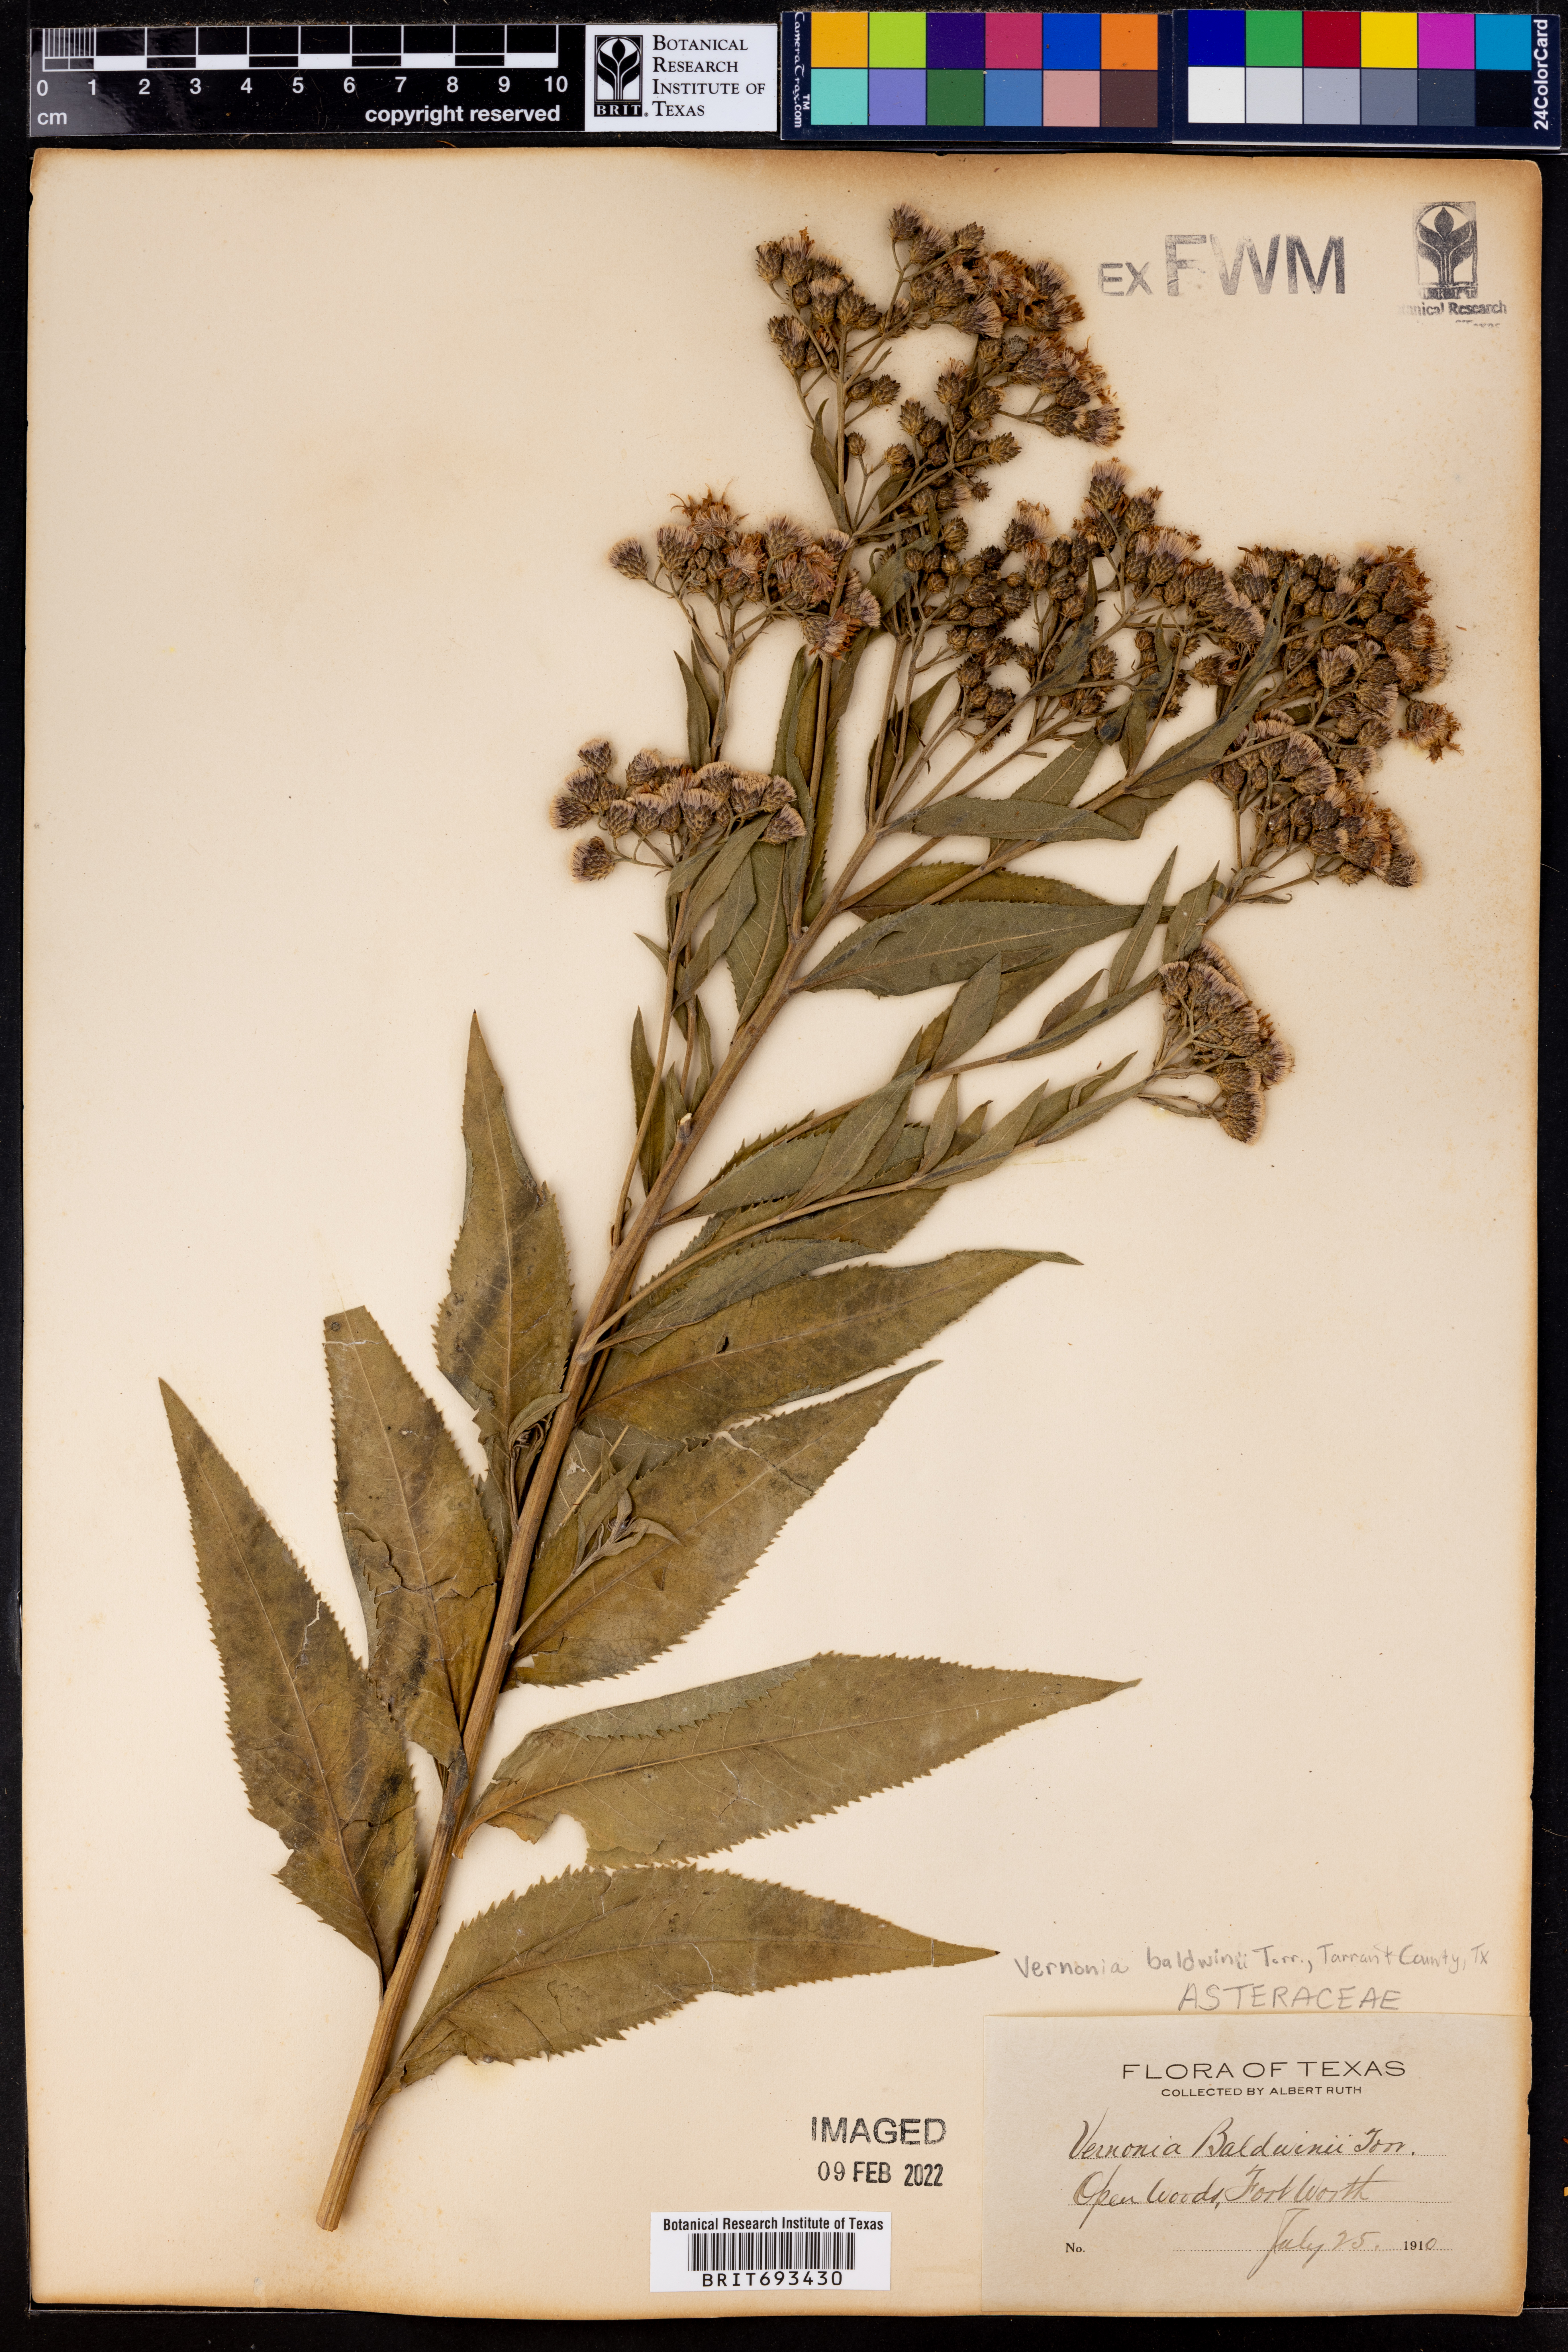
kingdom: Plantae
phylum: Tracheophyta
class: Magnoliopsida
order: Asterales
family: Asteraceae
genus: Vernonia
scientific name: Vernonia baldwinii
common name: Western ironweed
